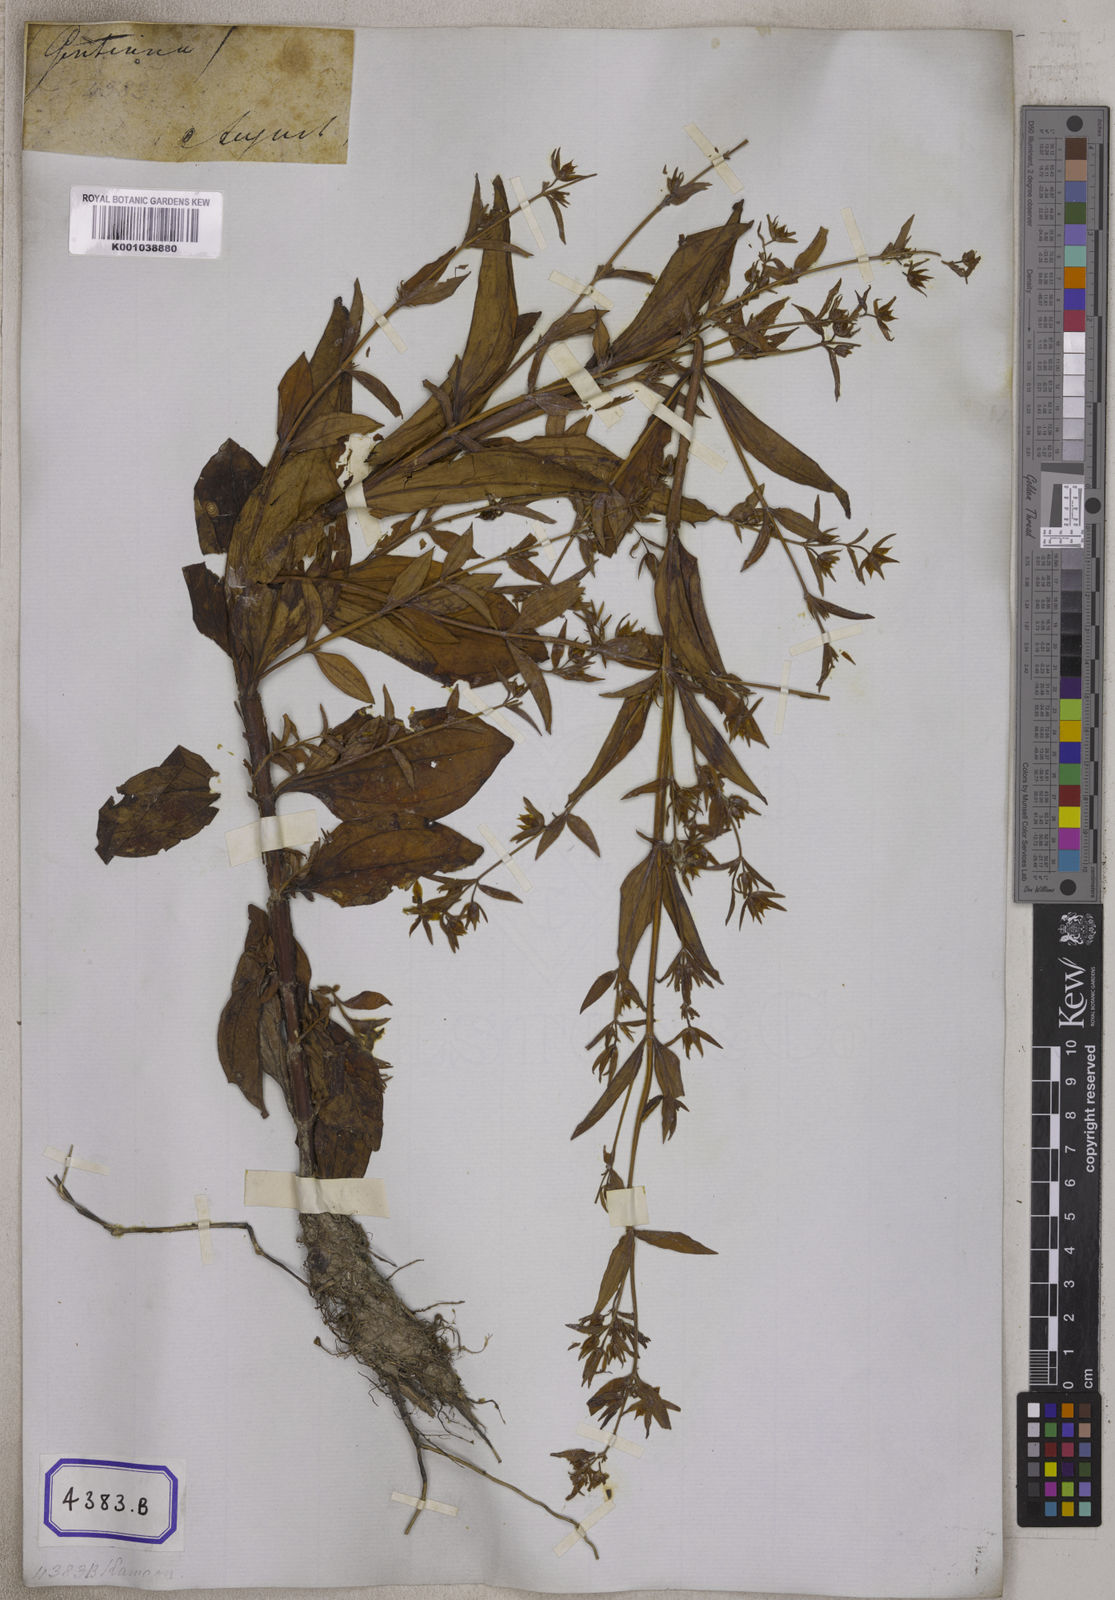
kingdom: Plantae
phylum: Tracheophyta
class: Magnoliopsida
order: Gentianales
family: Gentianaceae
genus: Swertia
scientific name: Swertia
